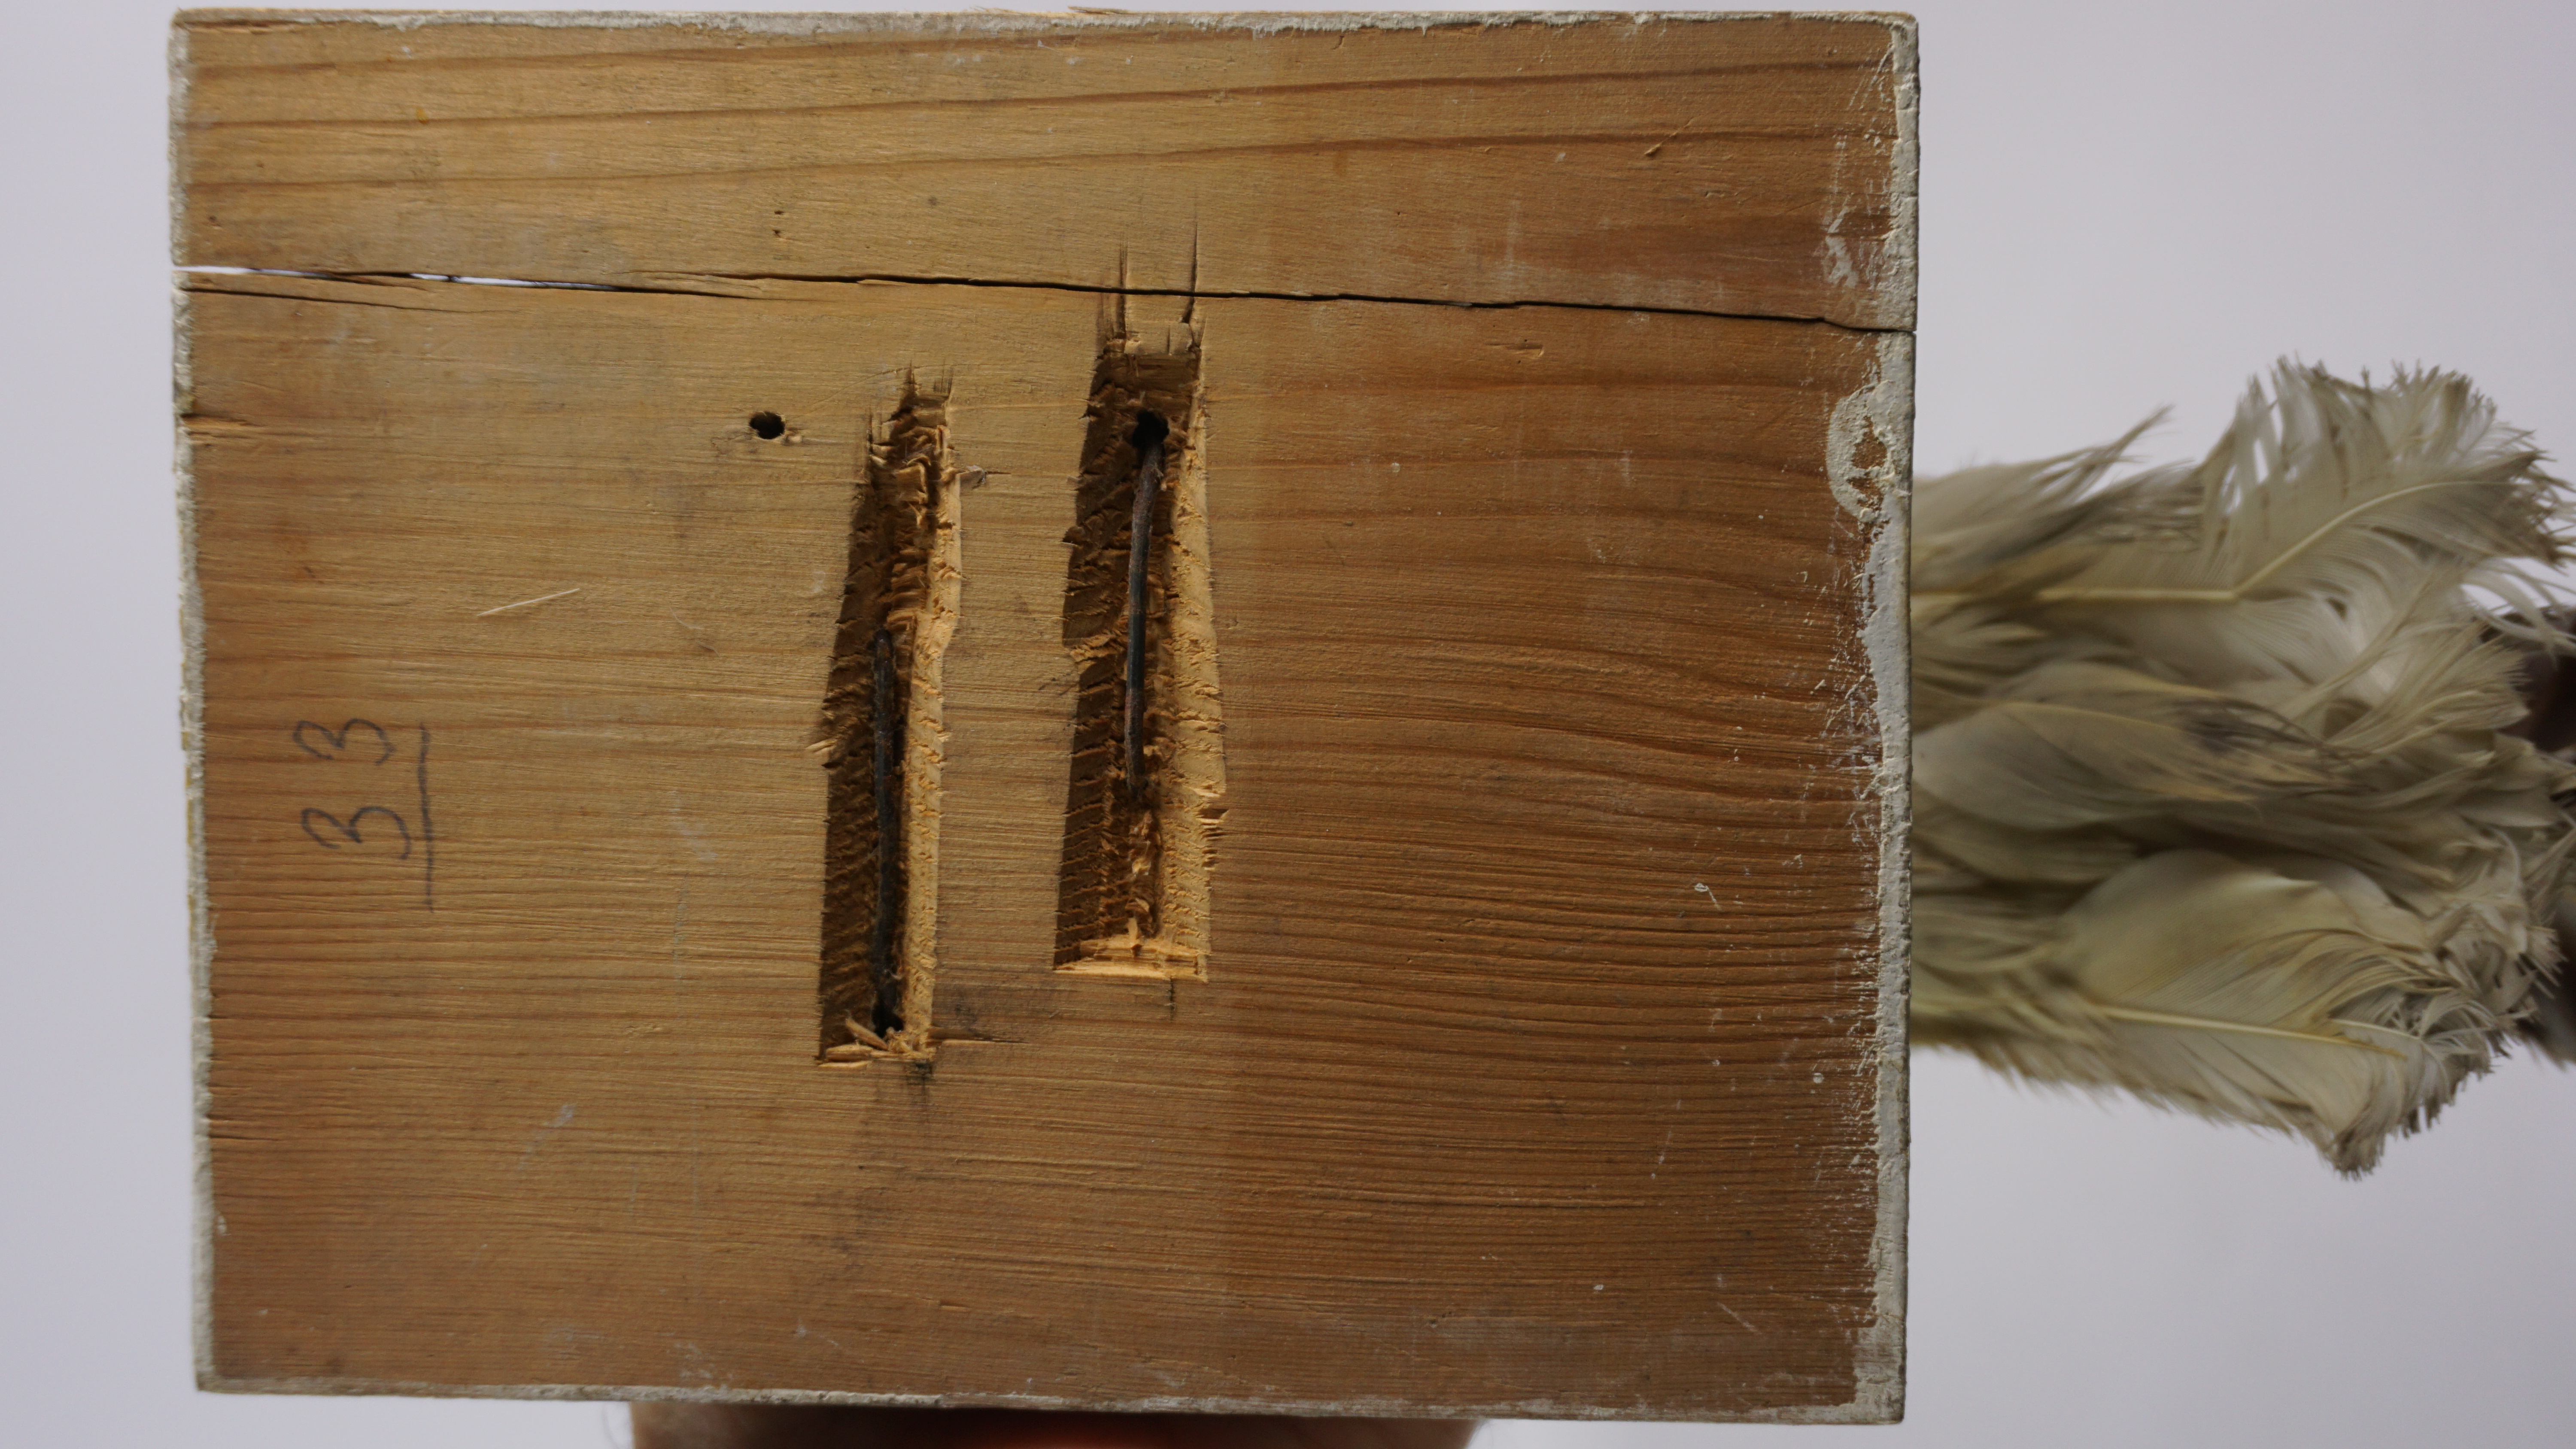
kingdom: Animalia
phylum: Chordata
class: Aves
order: Charadriiformes
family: Laridae
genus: Larus
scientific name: Larus canus
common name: Mew gull
